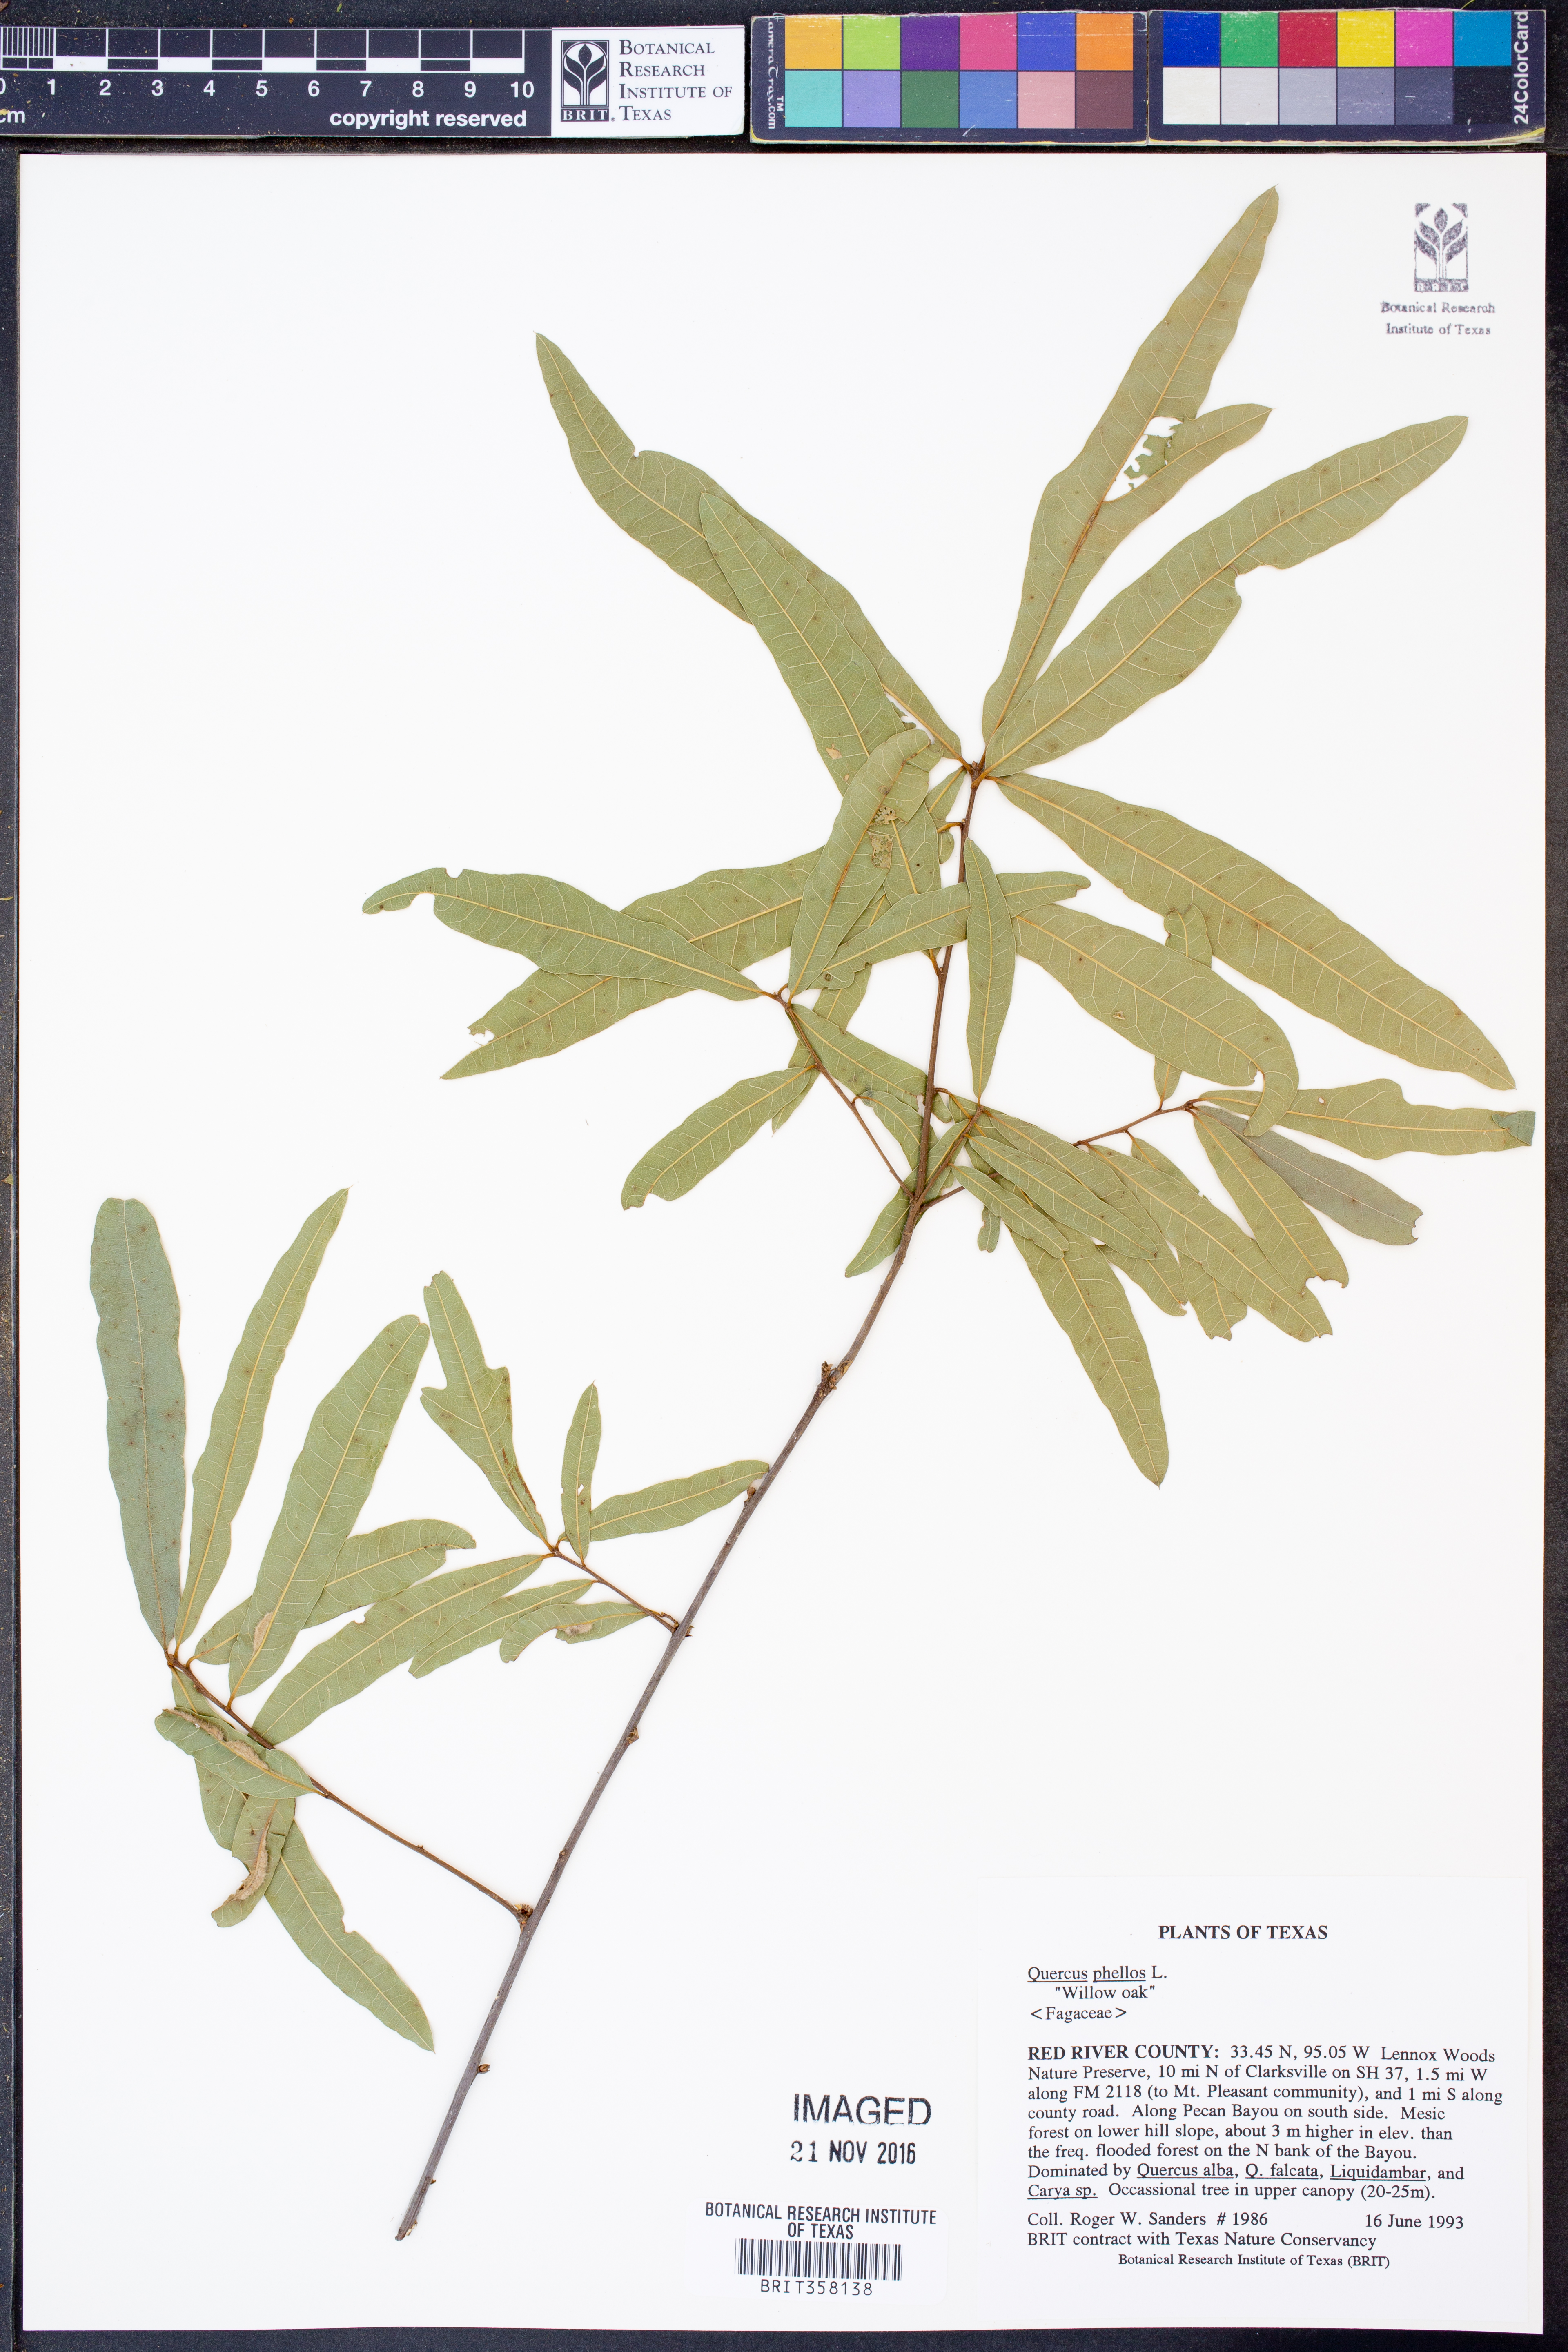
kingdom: Plantae
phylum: Tracheophyta
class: Magnoliopsida
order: Fagales
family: Fagaceae
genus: Quercus
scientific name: Quercus phellos
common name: Willow oak
